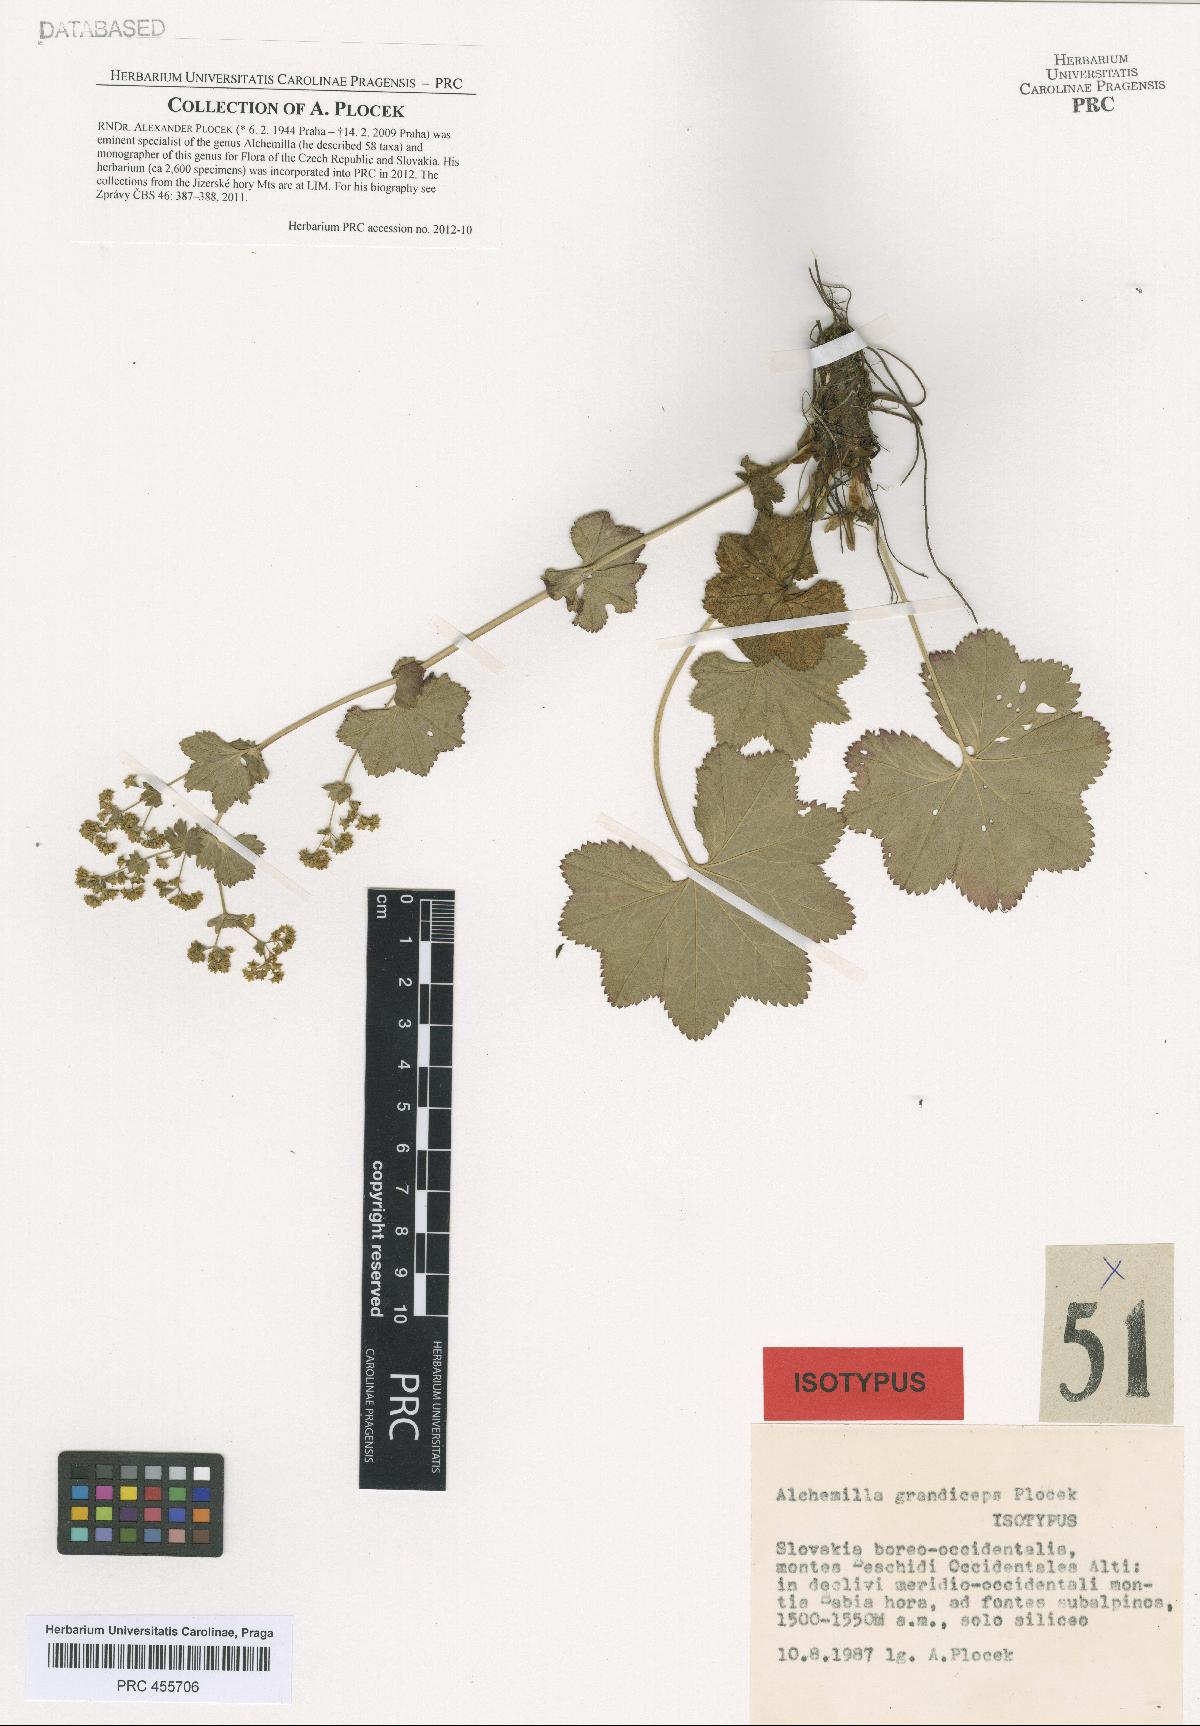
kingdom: Plantae
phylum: Tracheophyta
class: Magnoliopsida
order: Rosales
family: Rosaceae
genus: Alchemilla
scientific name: Alchemilla grandiceps
